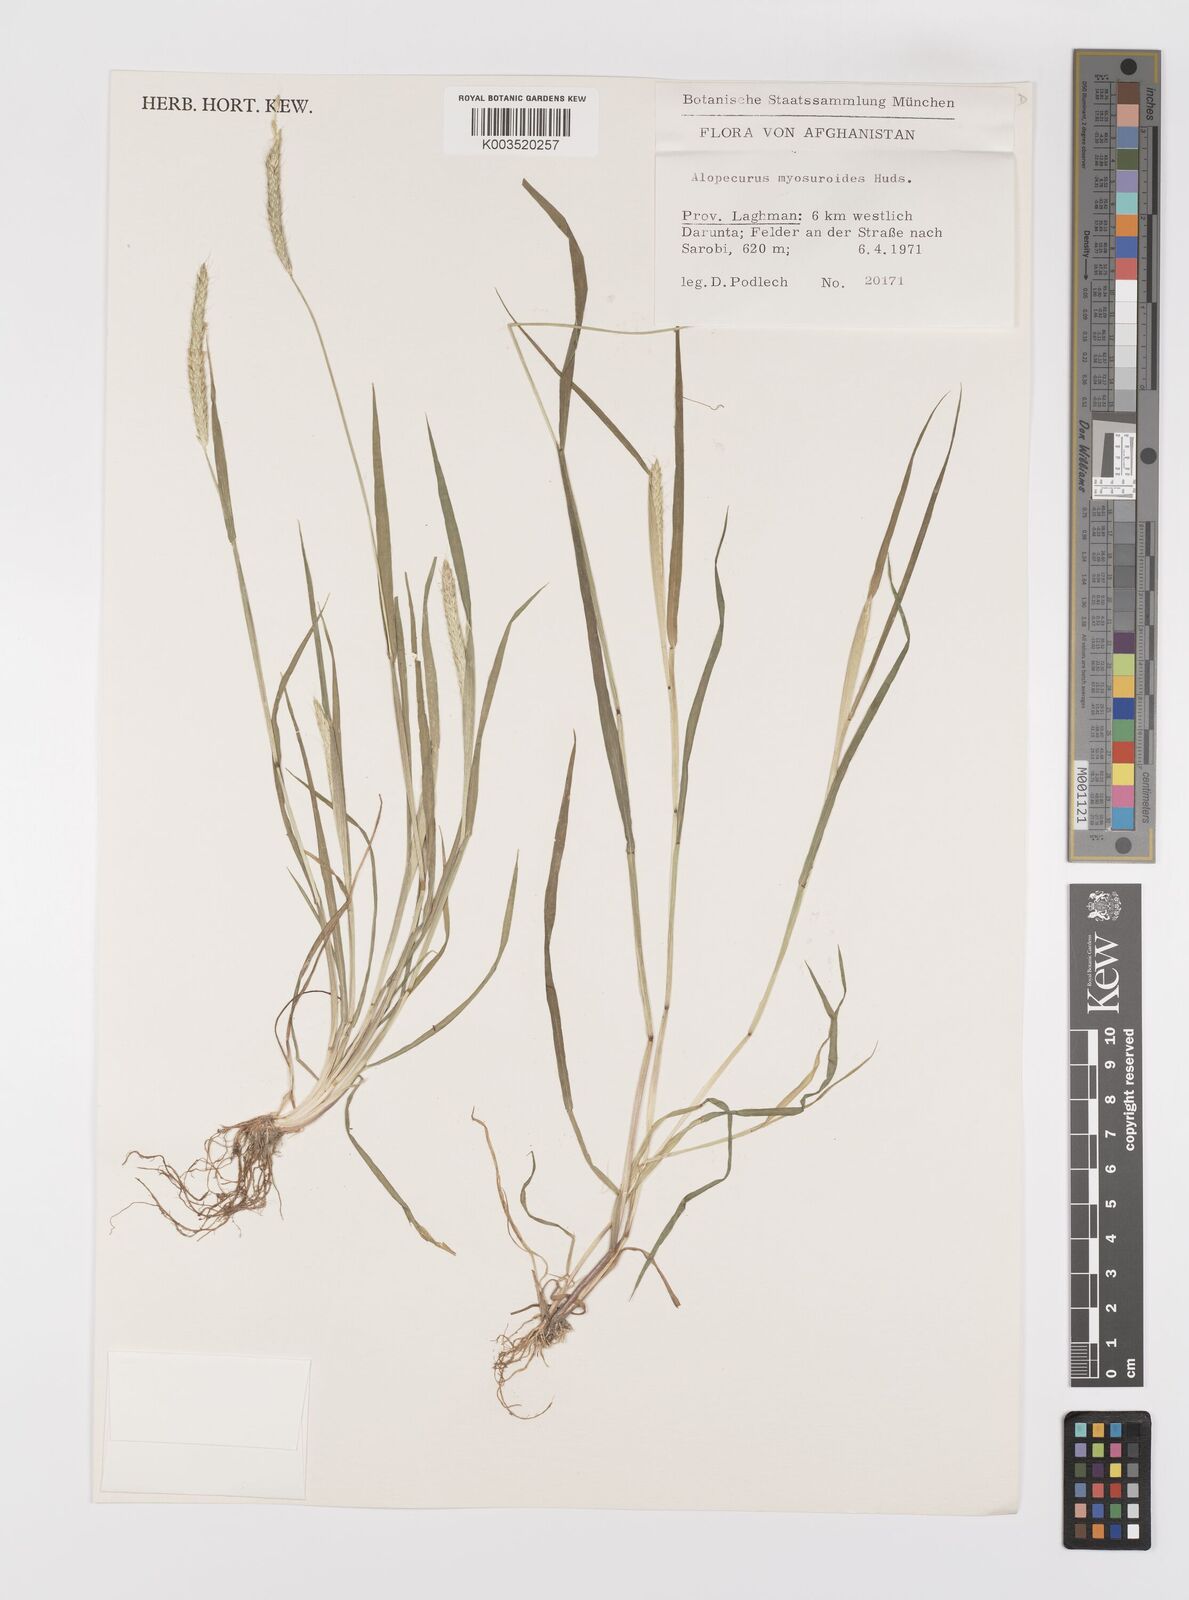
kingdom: Plantae
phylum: Tracheophyta
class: Liliopsida
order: Poales
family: Poaceae
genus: Alopecurus
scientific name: Alopecurus myosuroides
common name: Black-grass
